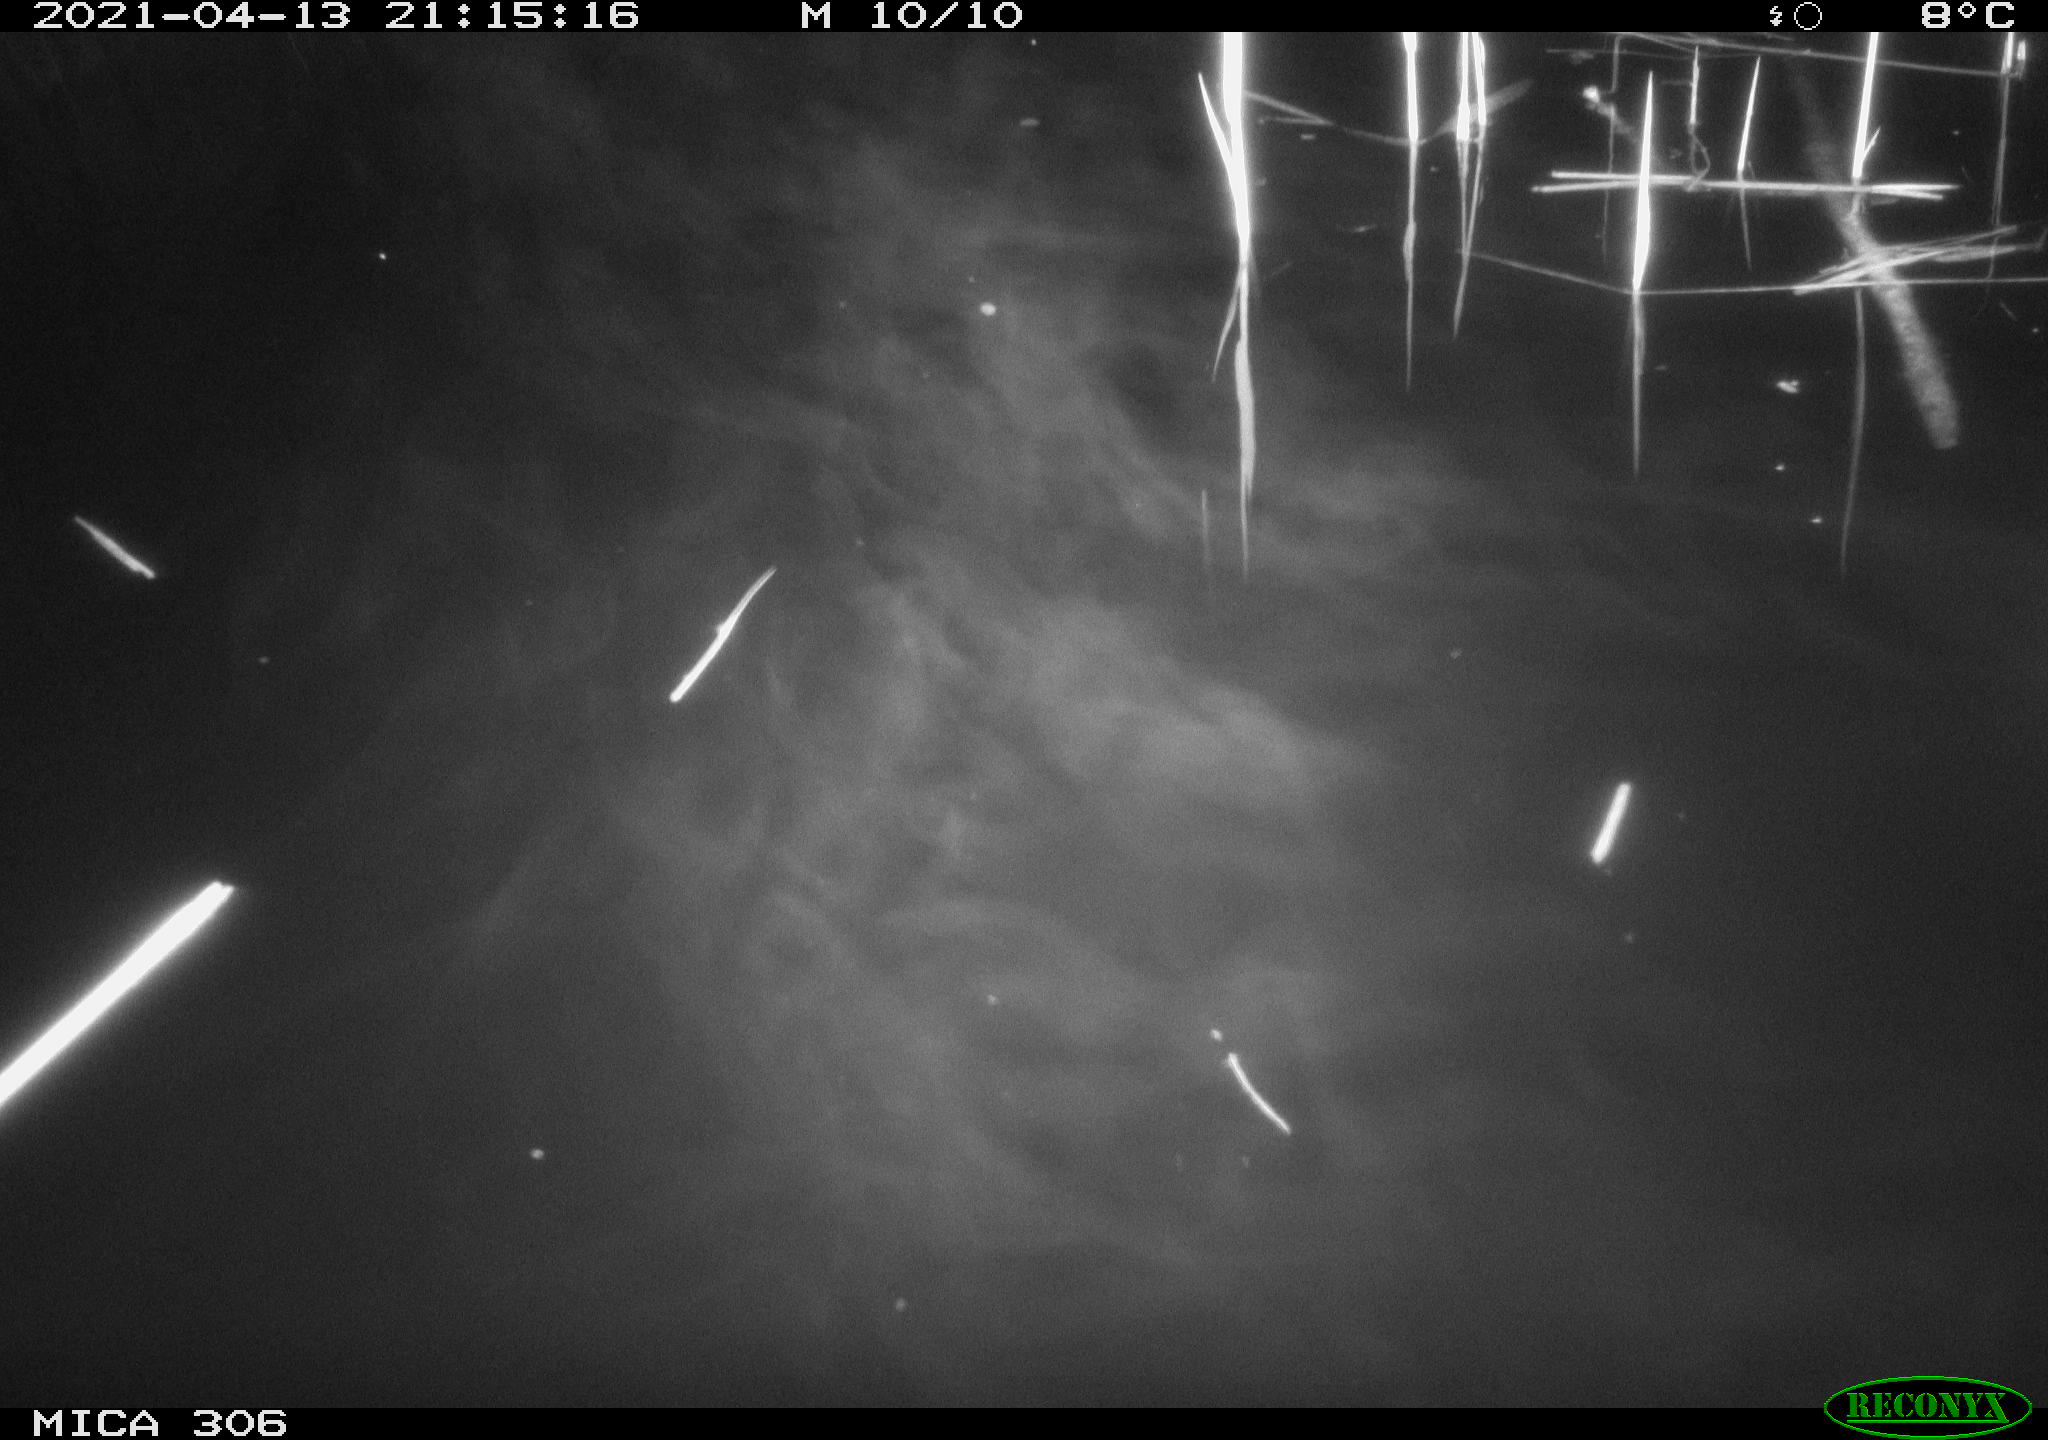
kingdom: Animalia
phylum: Chordata
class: Aves
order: Anseriformes
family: Anatidae
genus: Anas
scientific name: Anas
